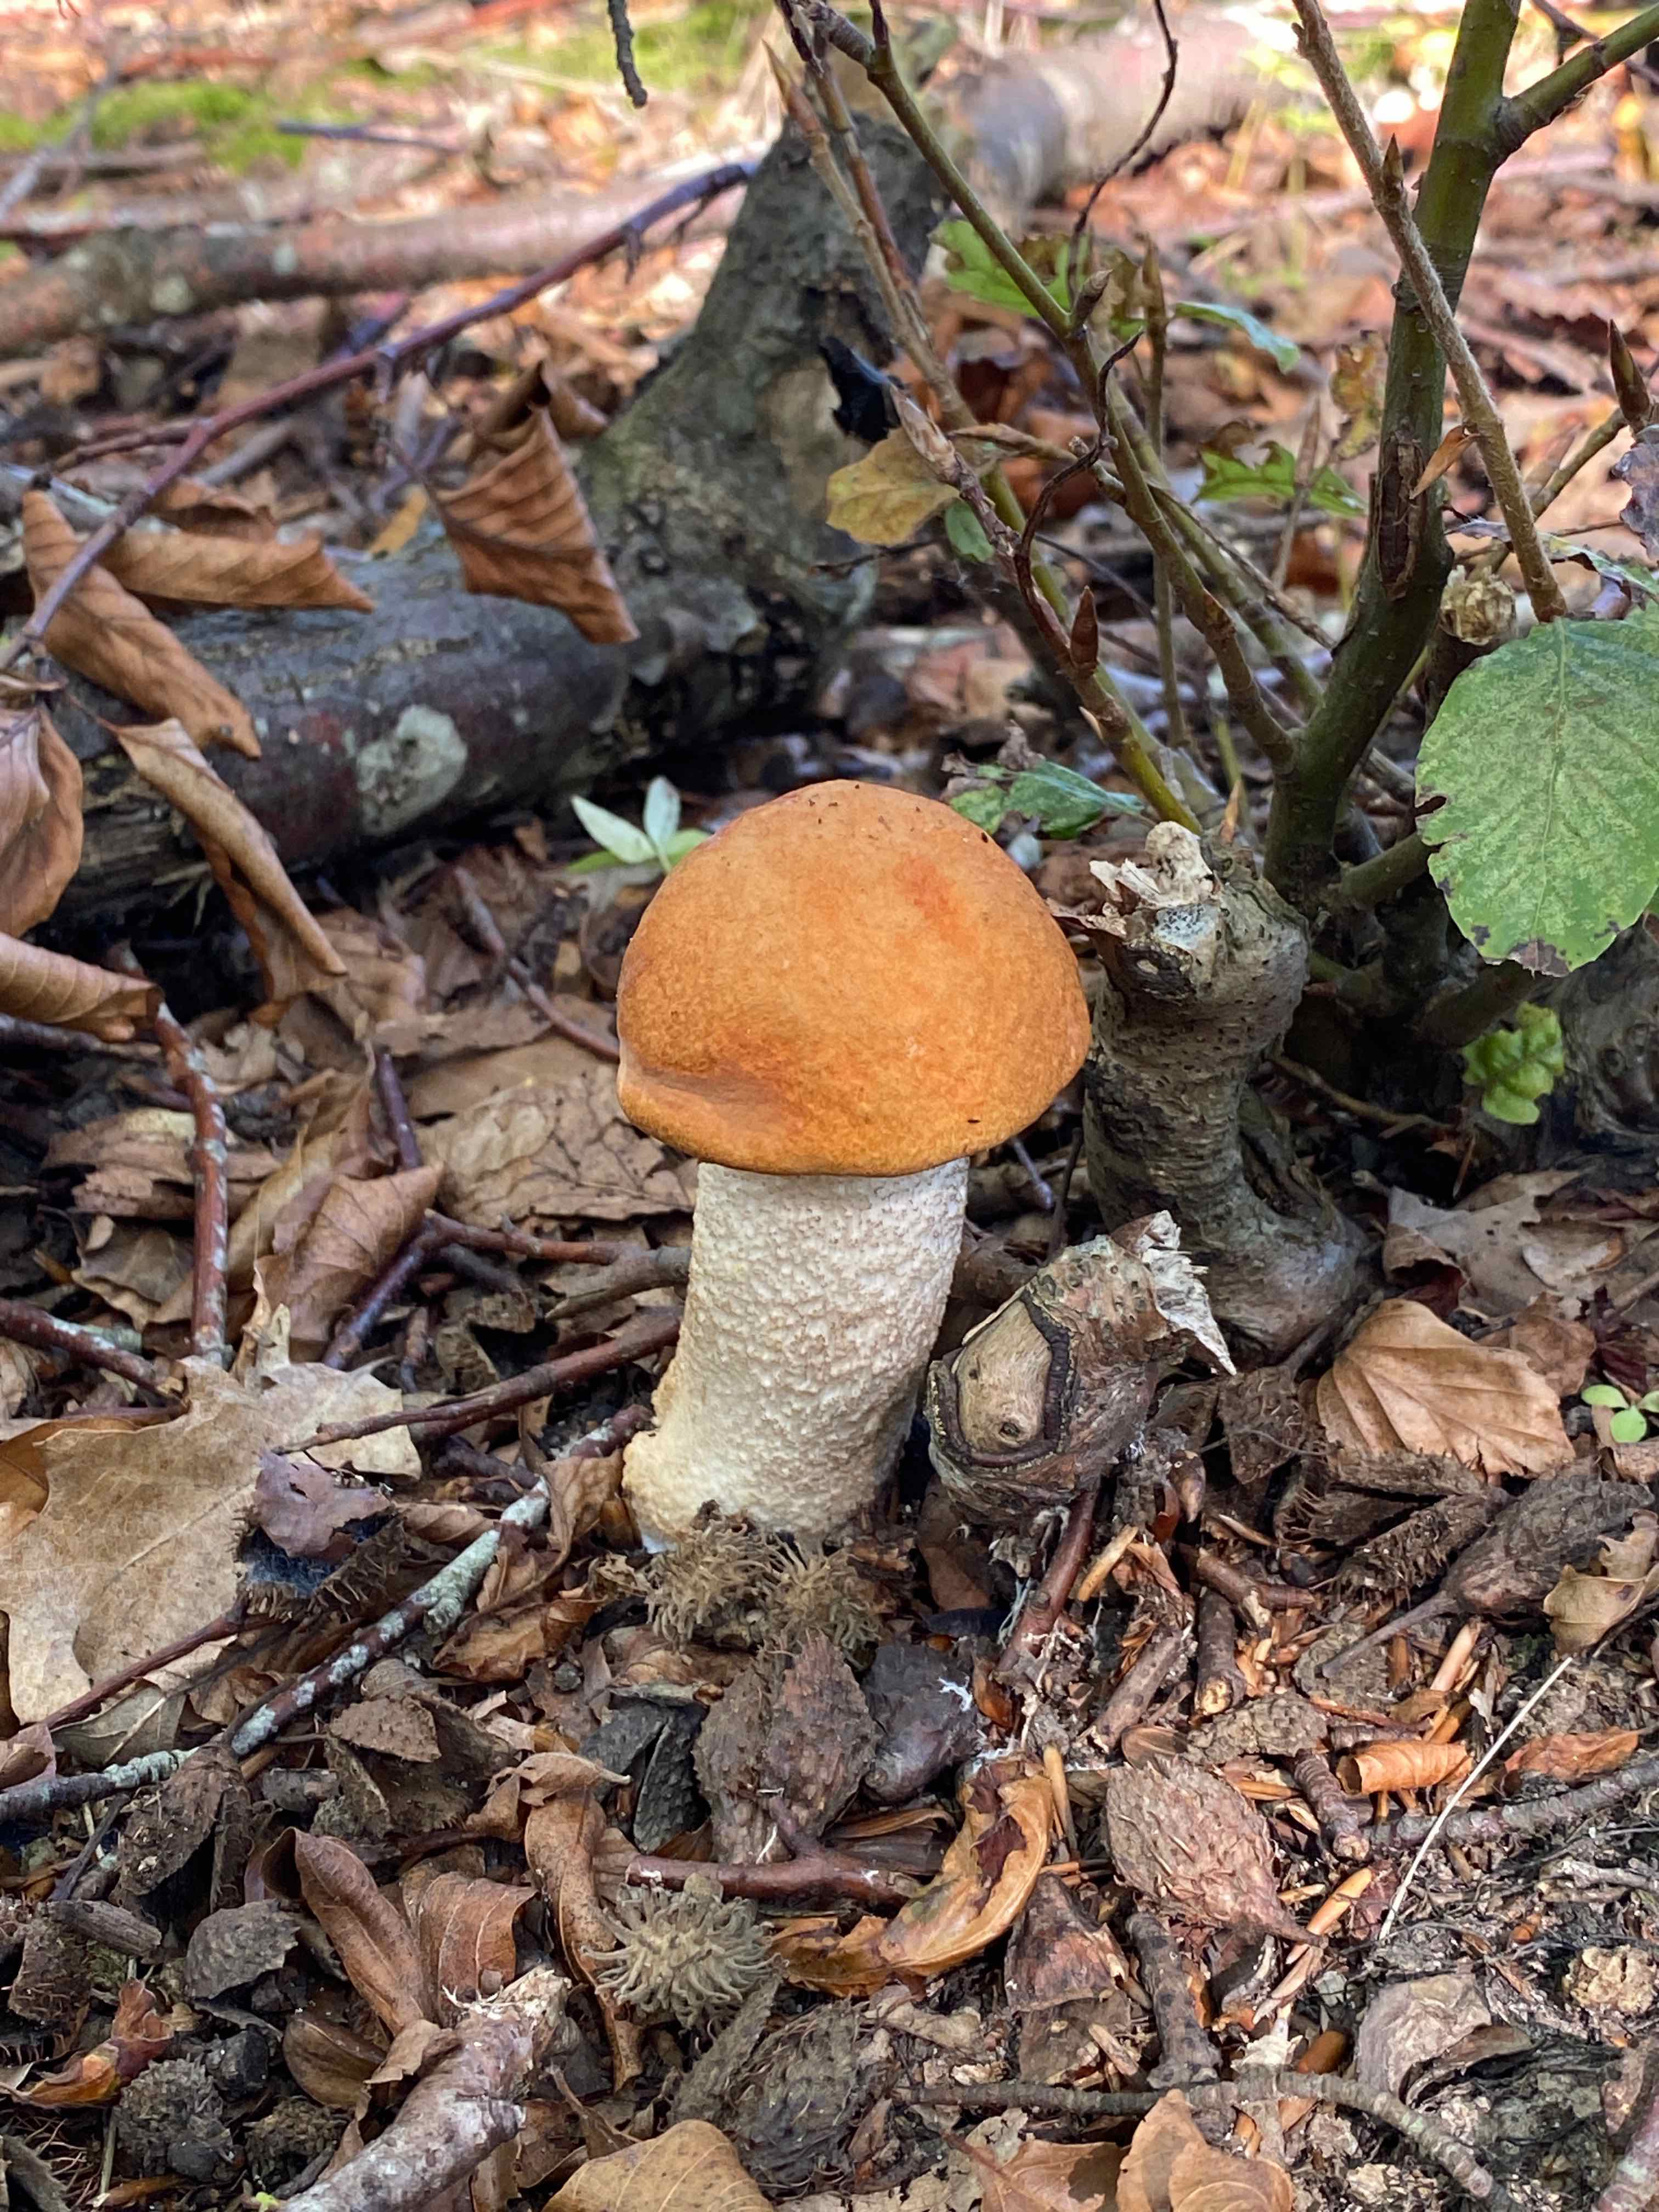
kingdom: Fungi
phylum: Basidiomycota
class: Agaricomycetes
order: Boletales
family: Boletaceae
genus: Leccinum
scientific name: Leccinum aurantiacum
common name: rustrød skælrørhat
